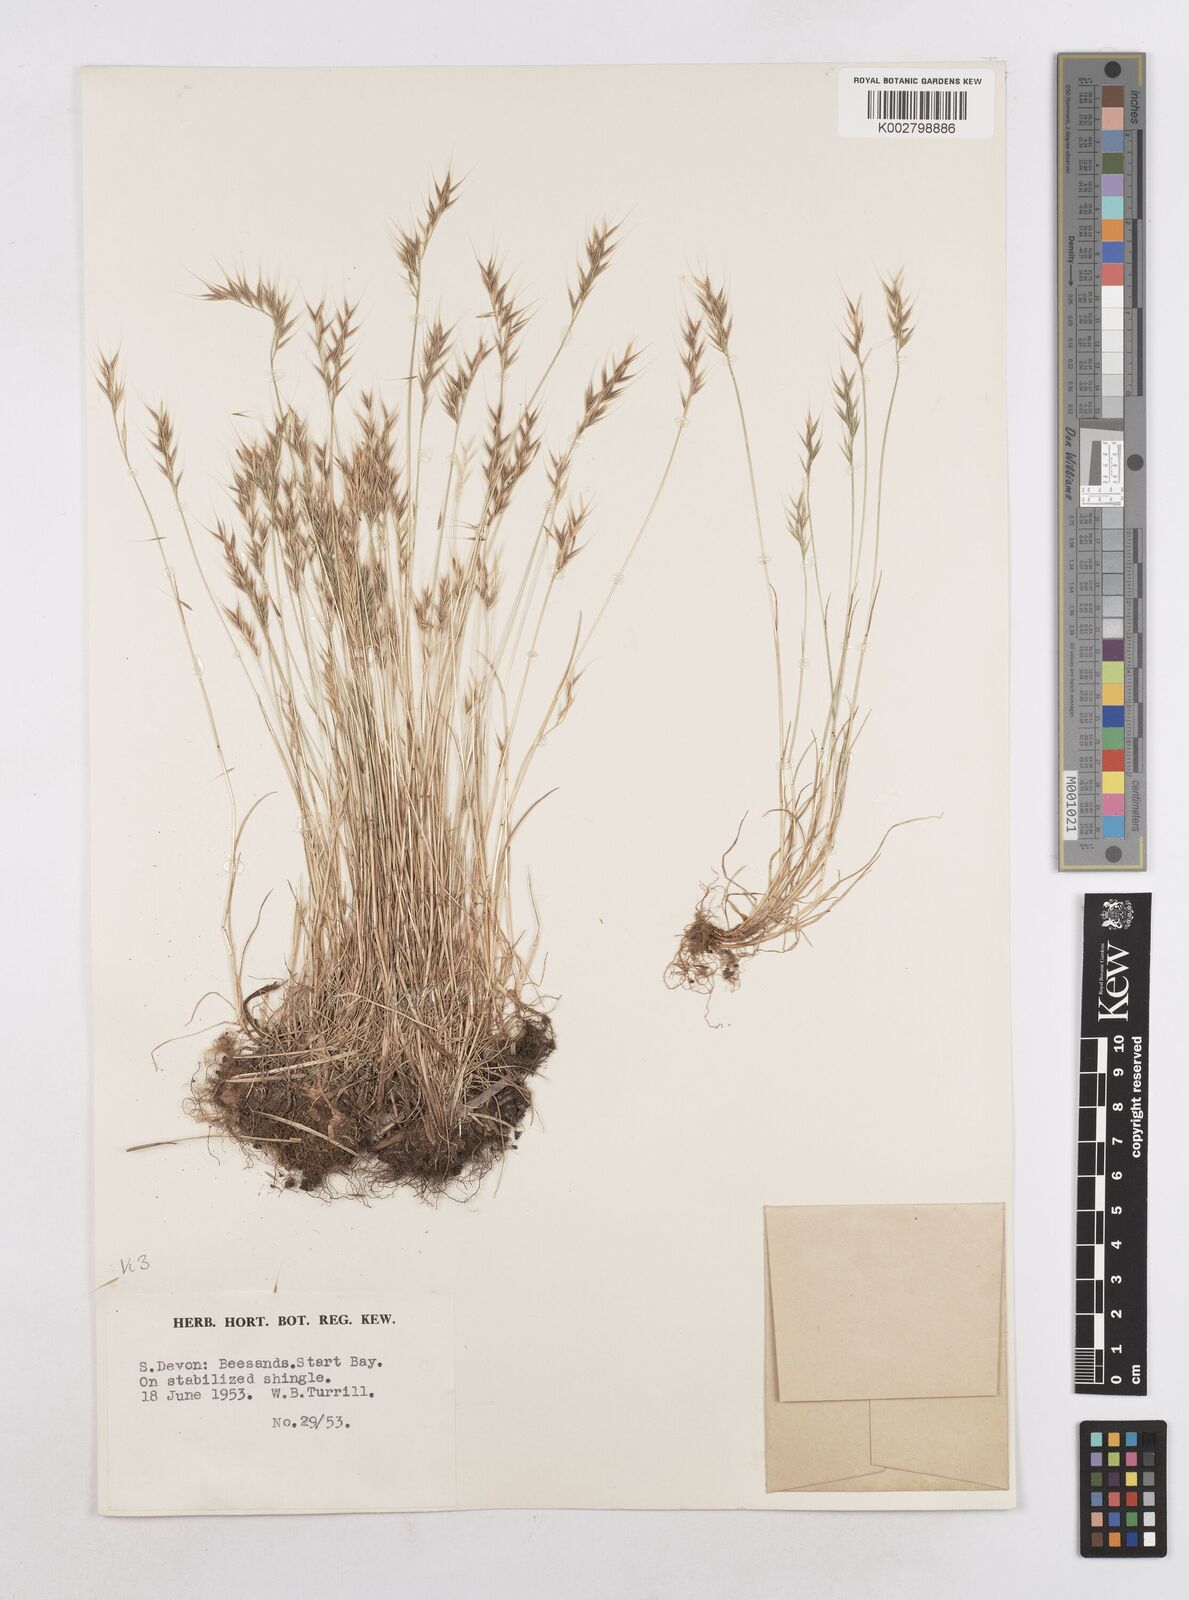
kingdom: Plantae
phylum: Tracheophyta
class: Liliopsida
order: Poales
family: Poaceae
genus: Festuca
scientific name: Festuca bromoides
